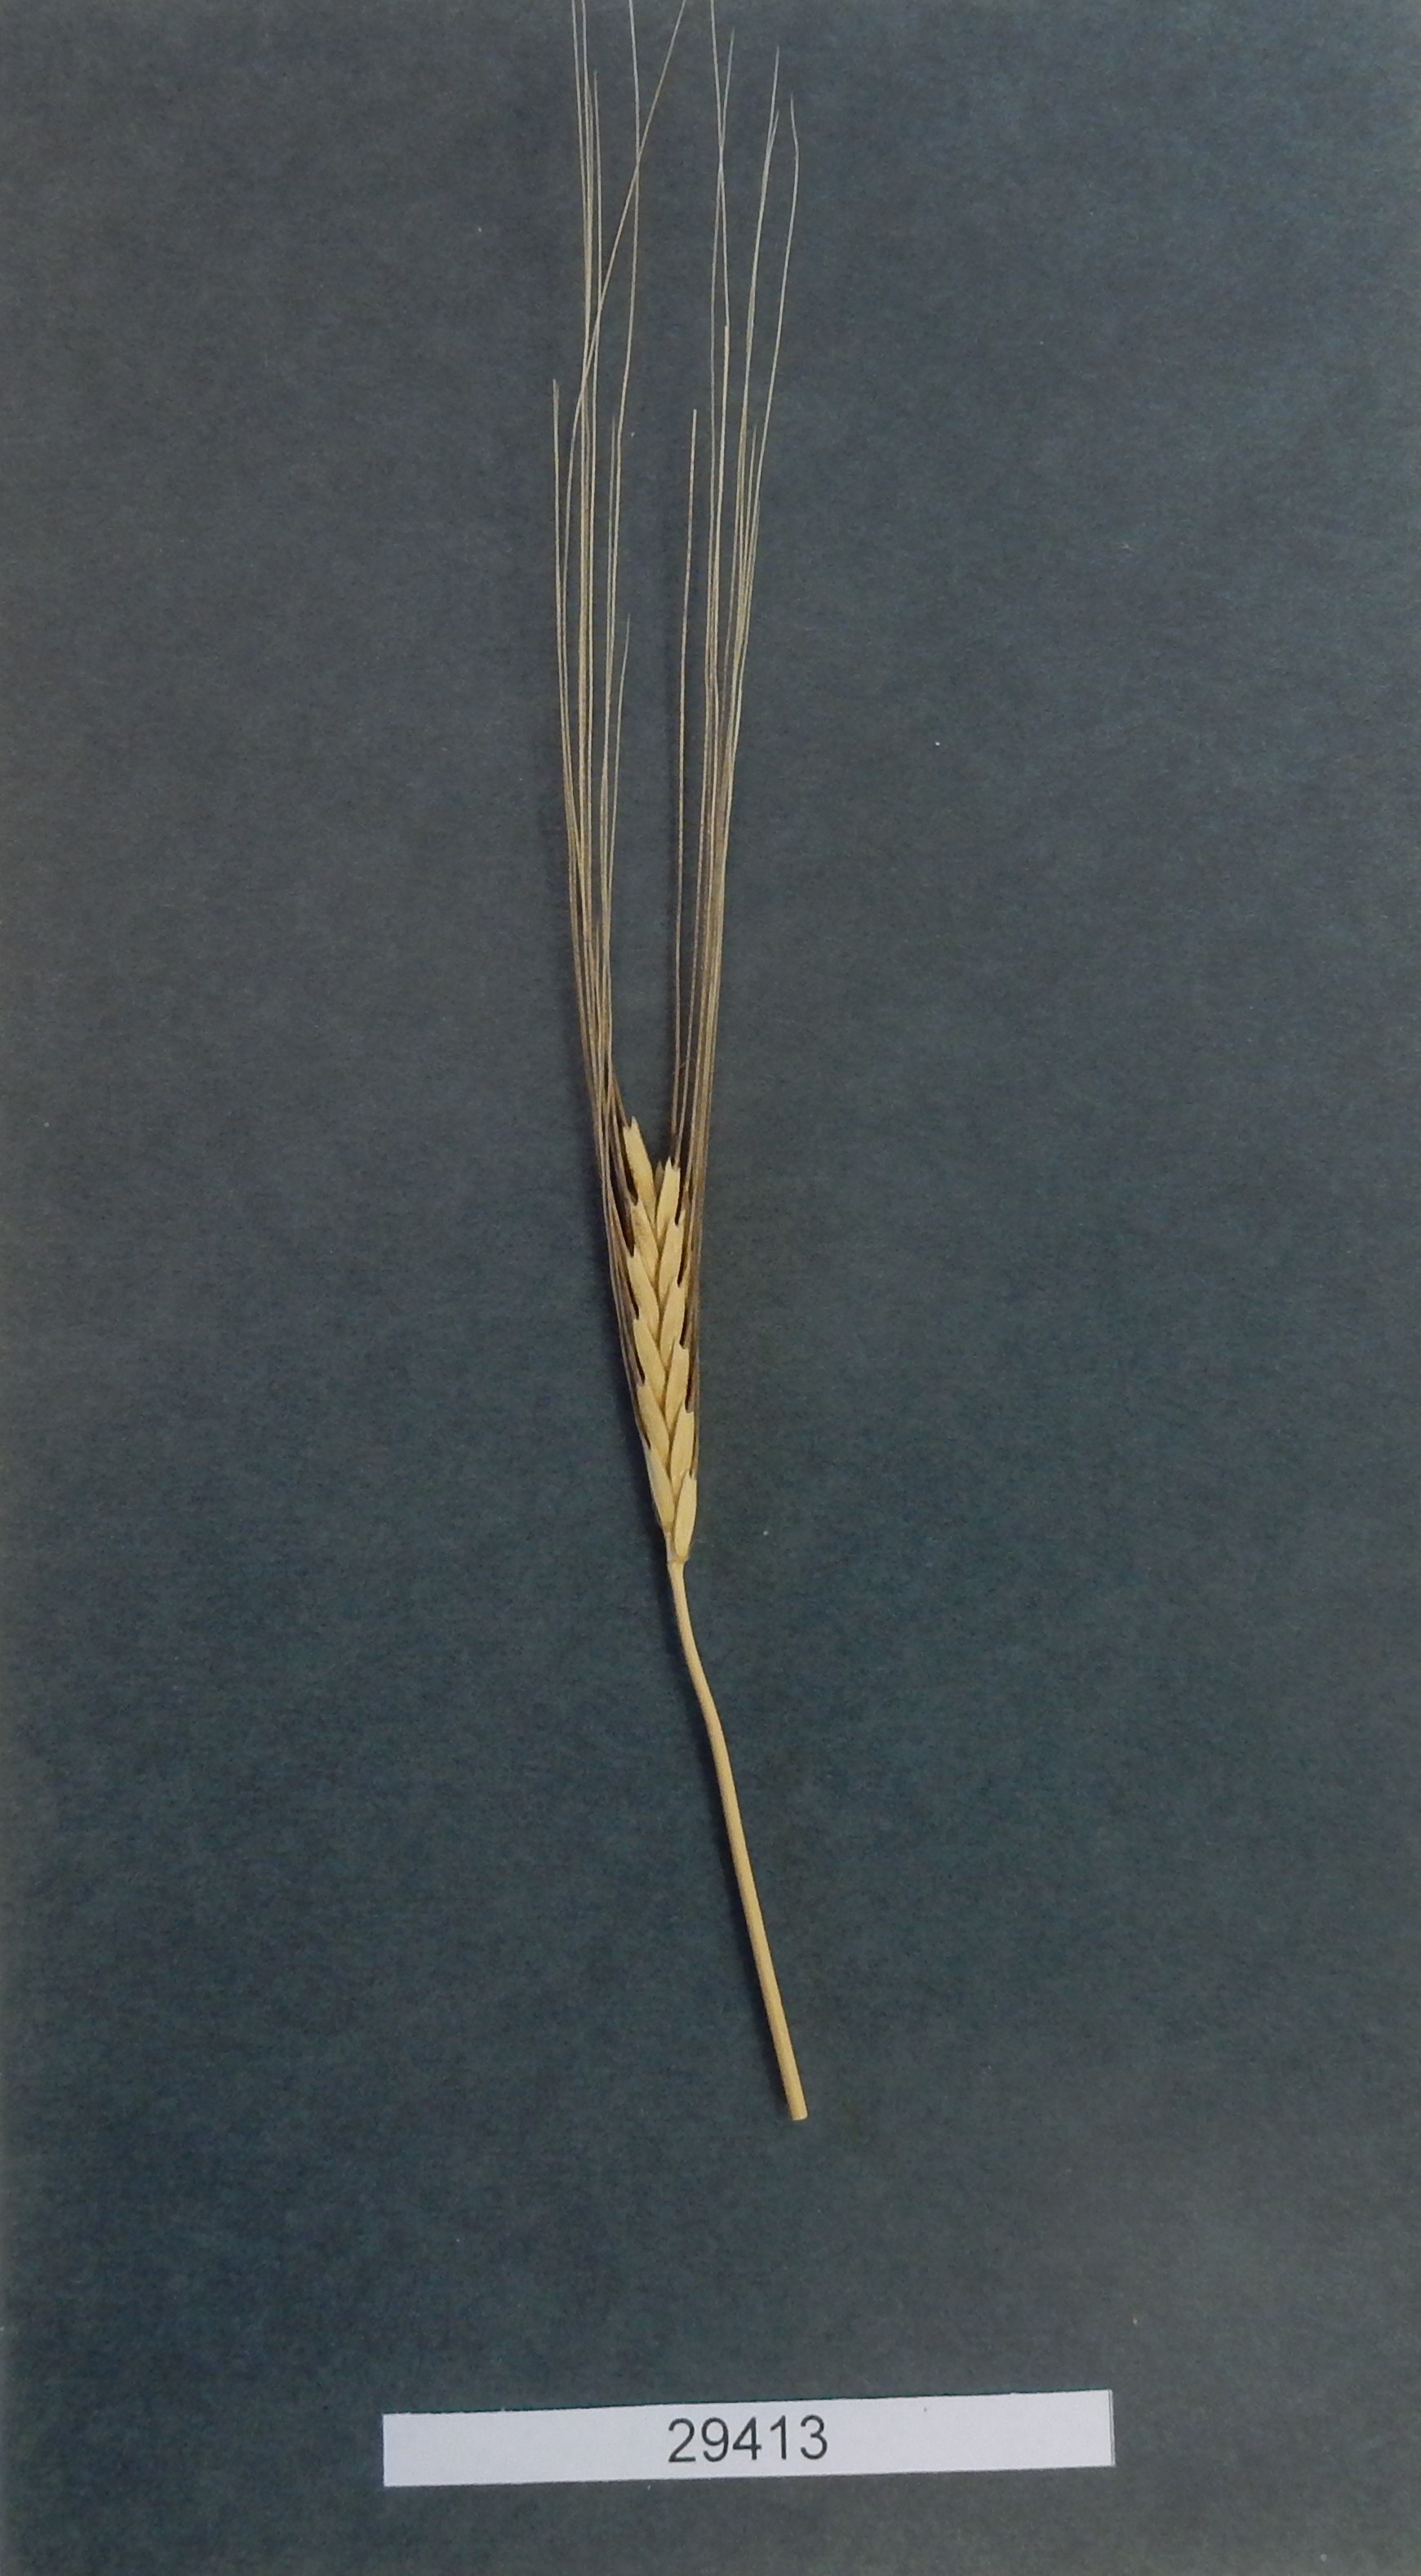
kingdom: Plantae
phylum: Tracheophyta
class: Liliopsida
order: Poales
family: Poaceae
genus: Triticum
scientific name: Triticum monococcum
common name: Wheat
